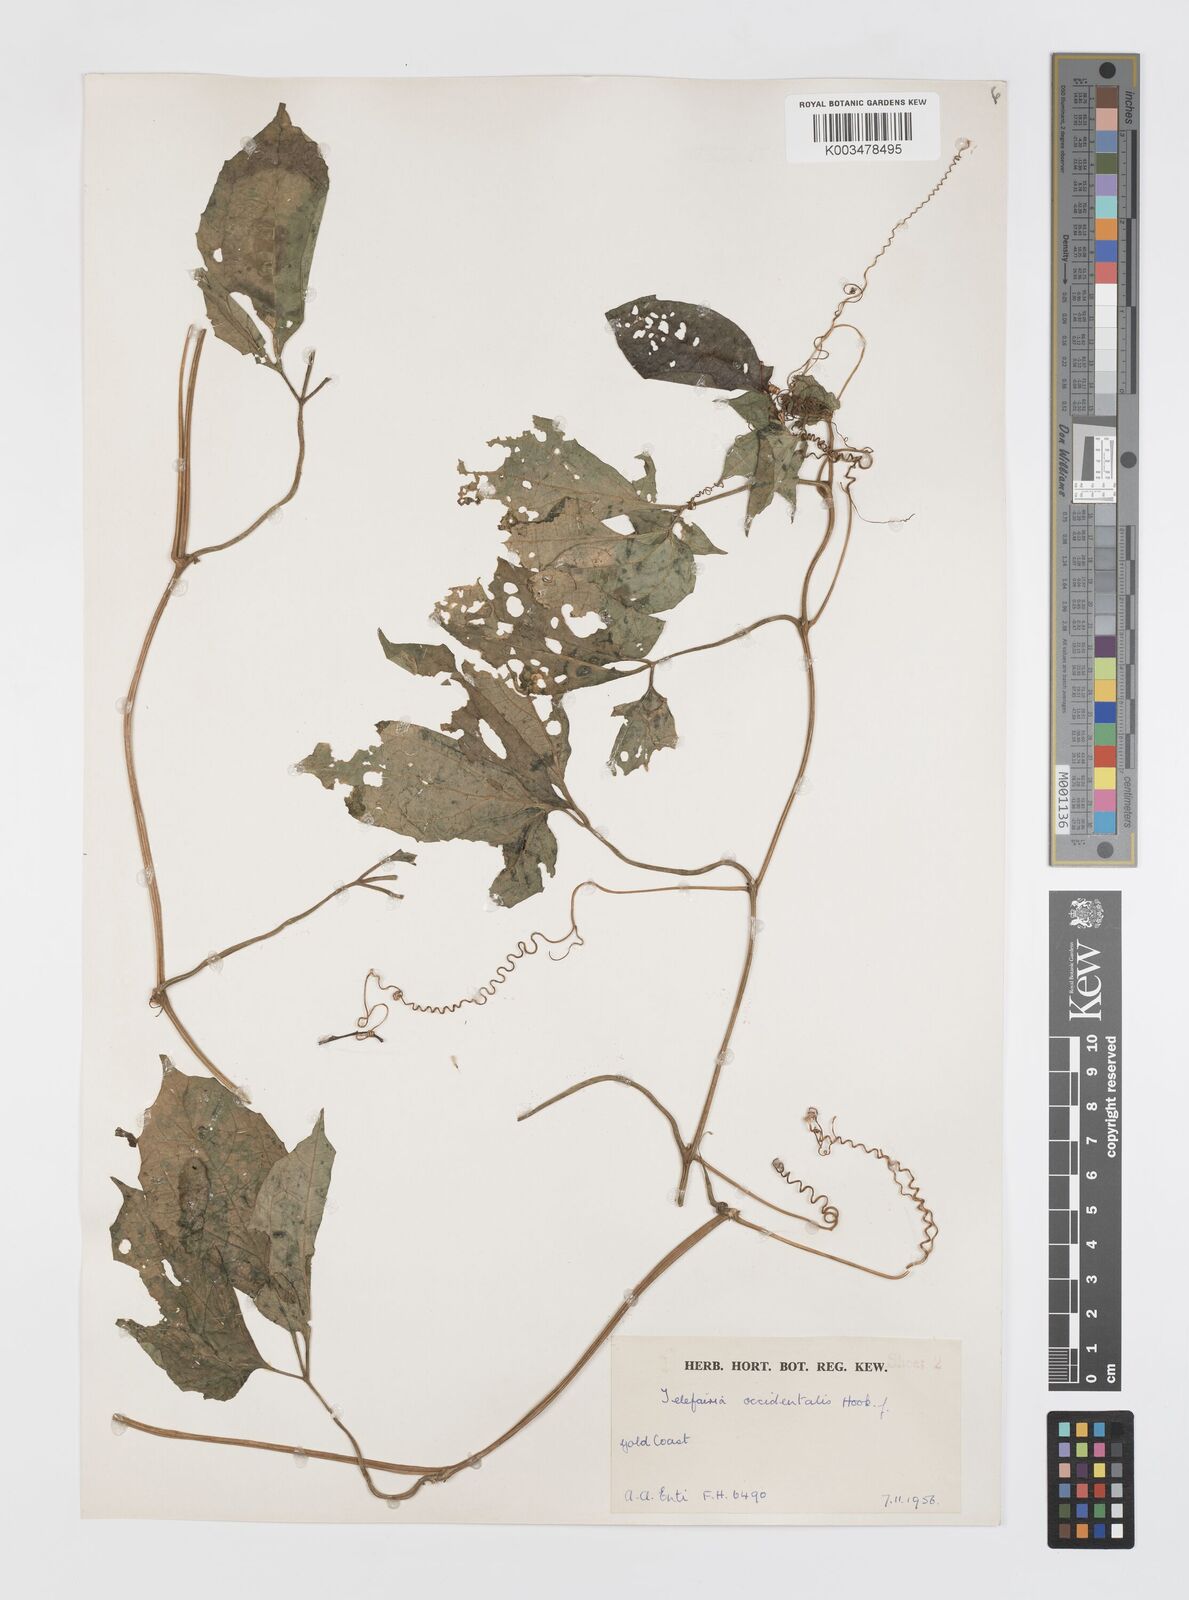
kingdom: Plantae
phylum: Tracheophyta
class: Magnoliopsida
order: Cucurbitales
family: Cucurbitaceae
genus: Telfairia
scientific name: Telfairia occidentalis
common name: Oysternut
